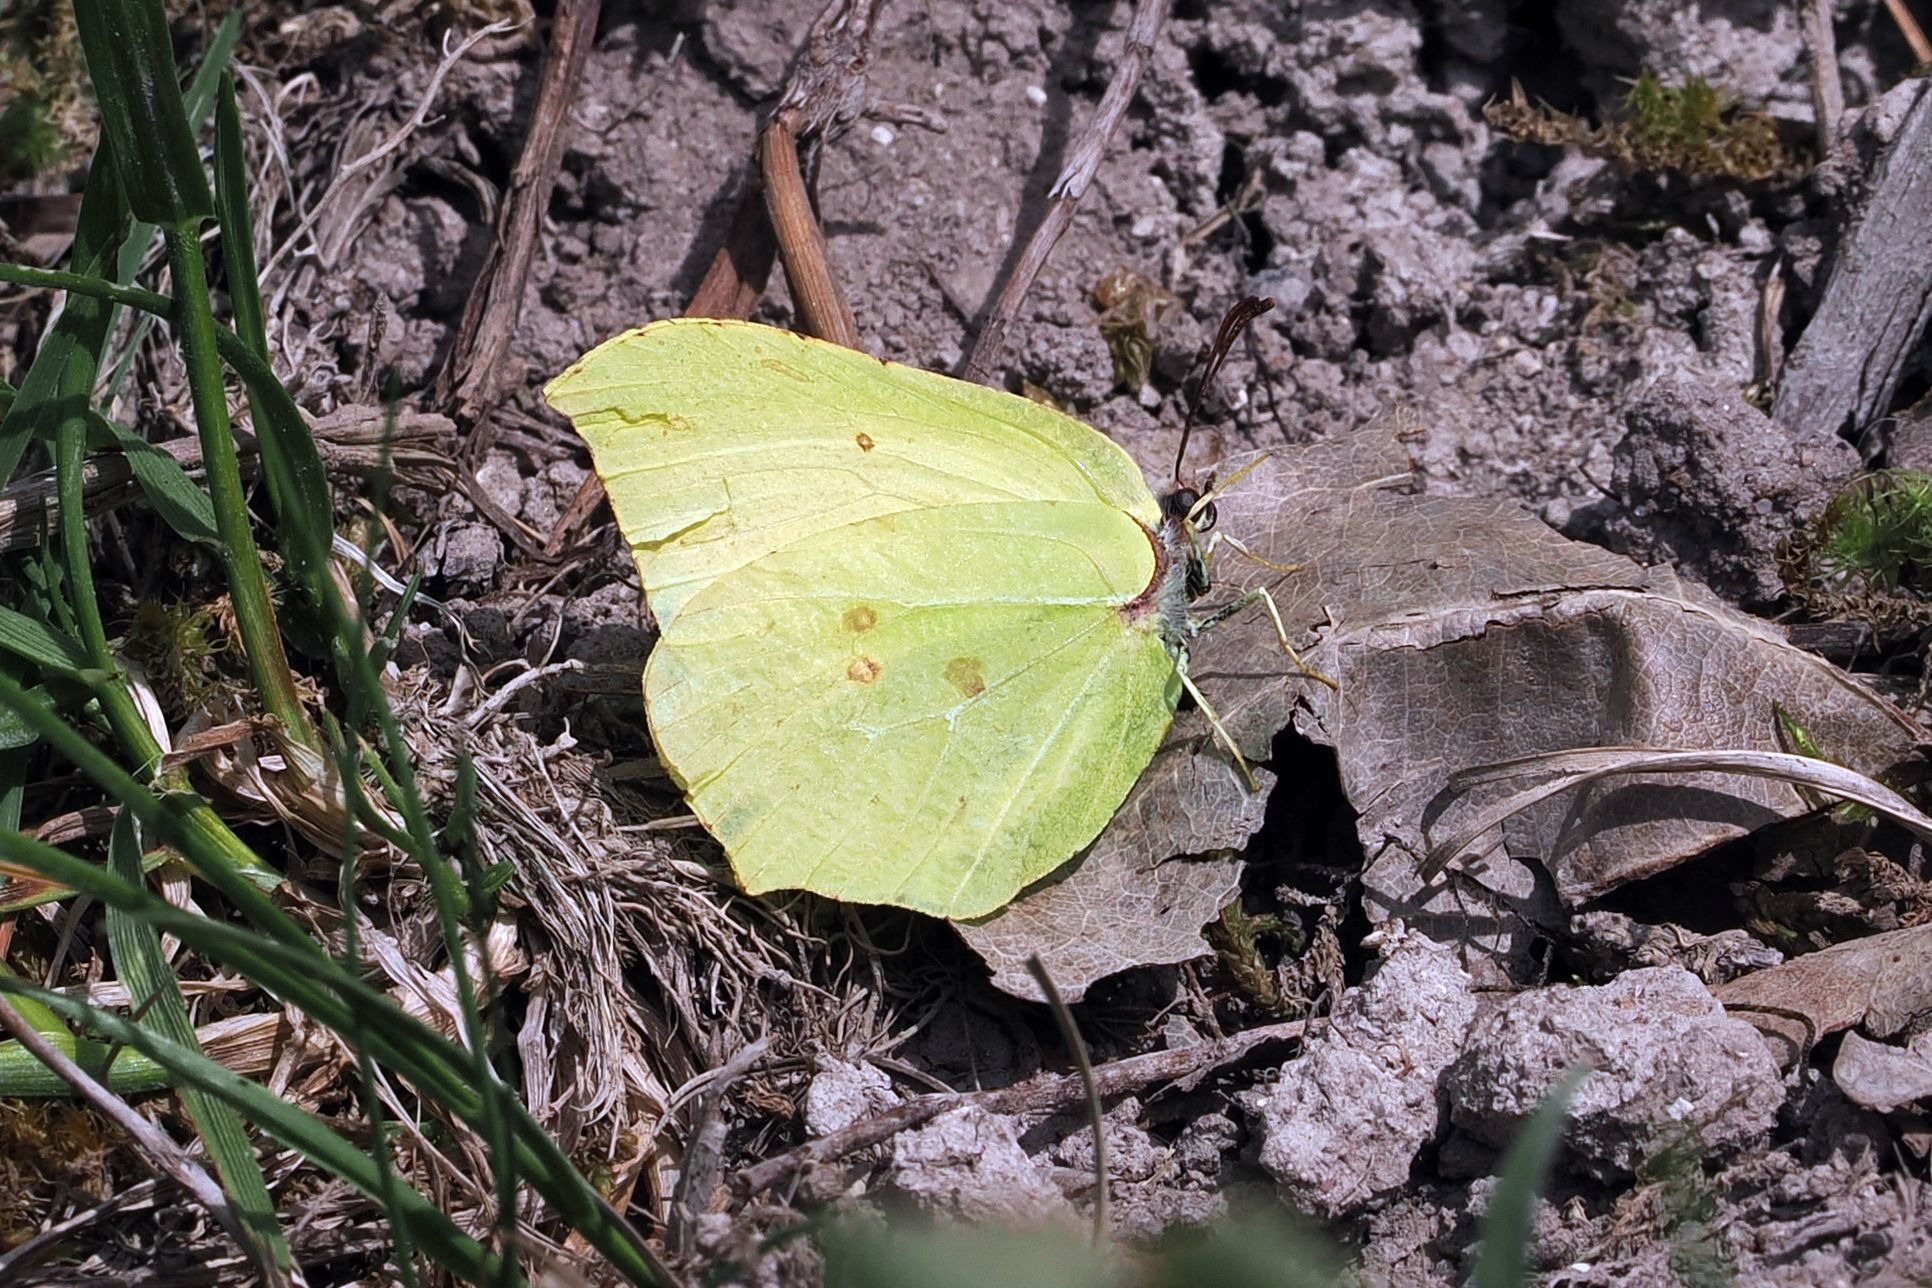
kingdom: Animalia
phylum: Arthropoda
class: Insecta
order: Lepidoptera
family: Pieridae
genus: Gonepteryx
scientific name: Gonepteryx rhamni
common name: Citronsommerfugl
